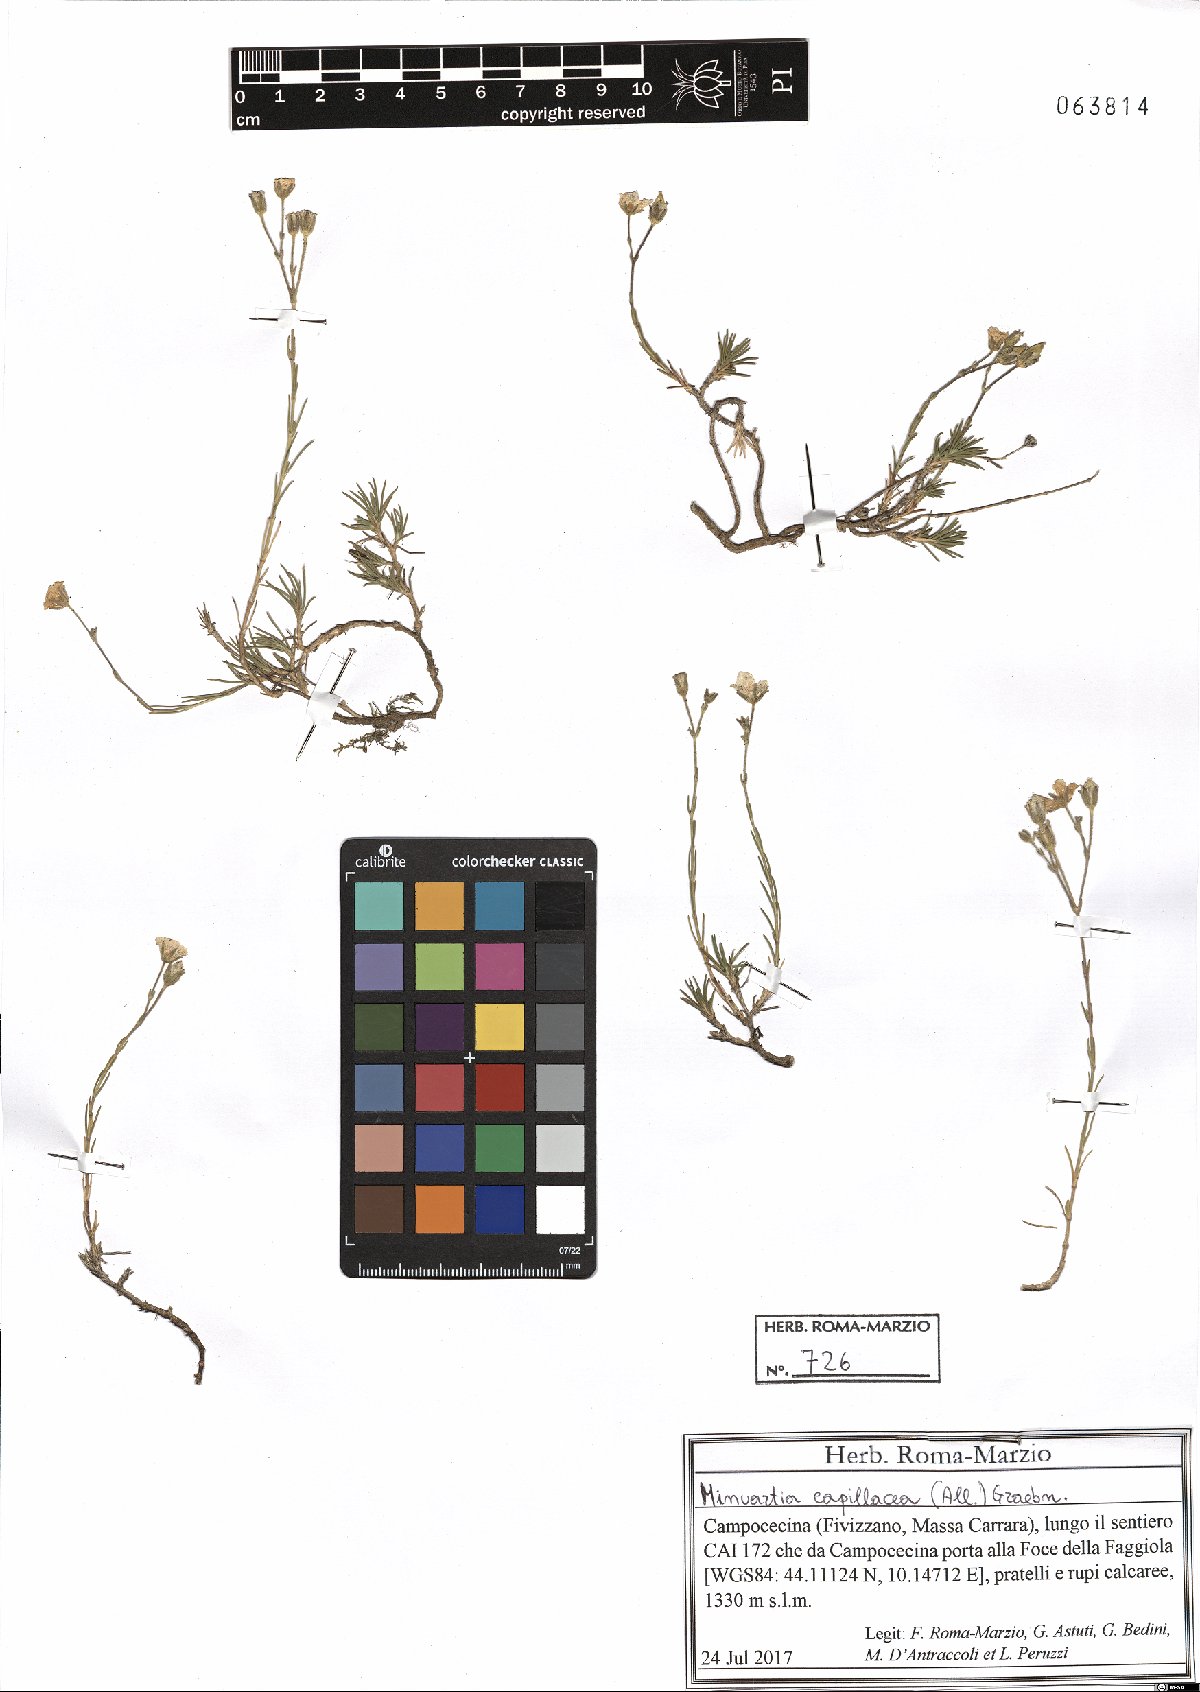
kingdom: Plantae
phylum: Tracheophyta
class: Magnoliopsida
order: Caryophyllales
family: Caryophyllaceae
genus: Cherleria
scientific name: Cherleria capillacea
